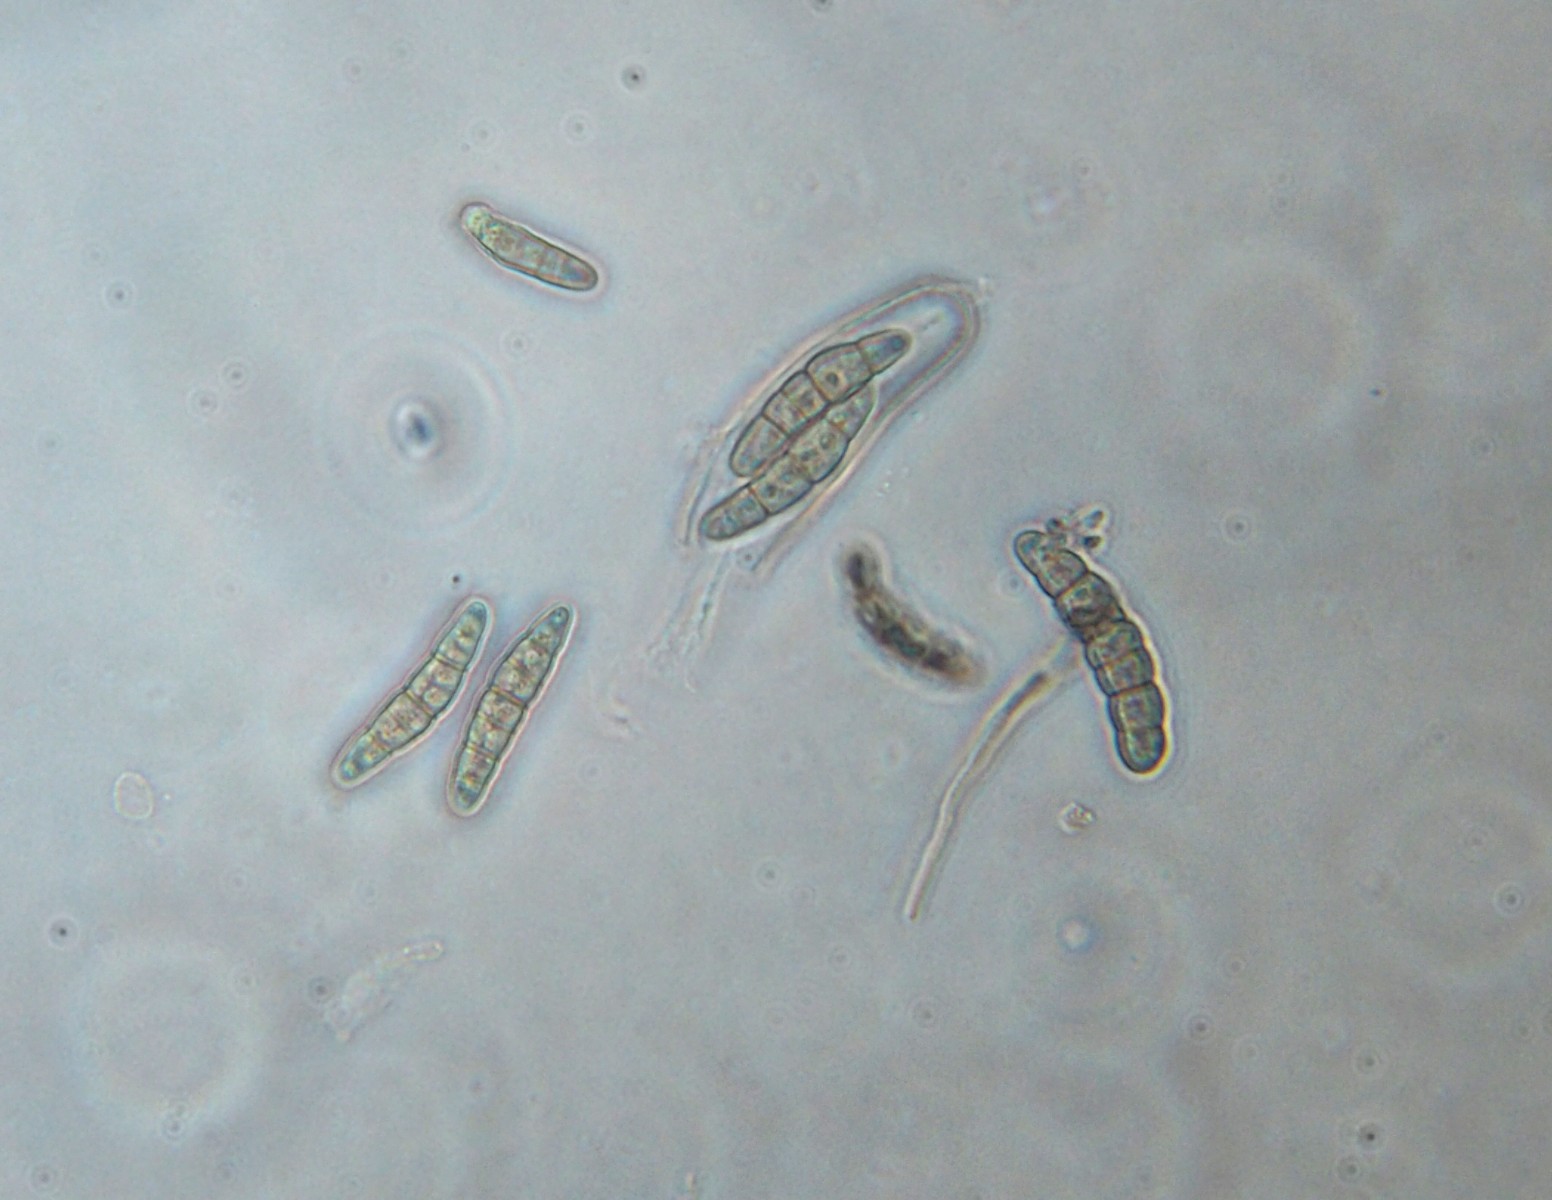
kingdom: Fungi
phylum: Ascomycota
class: Dothideomycetes
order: Pleosporales
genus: Rhopographus
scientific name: Rhopographus filicinus
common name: Bracken map
